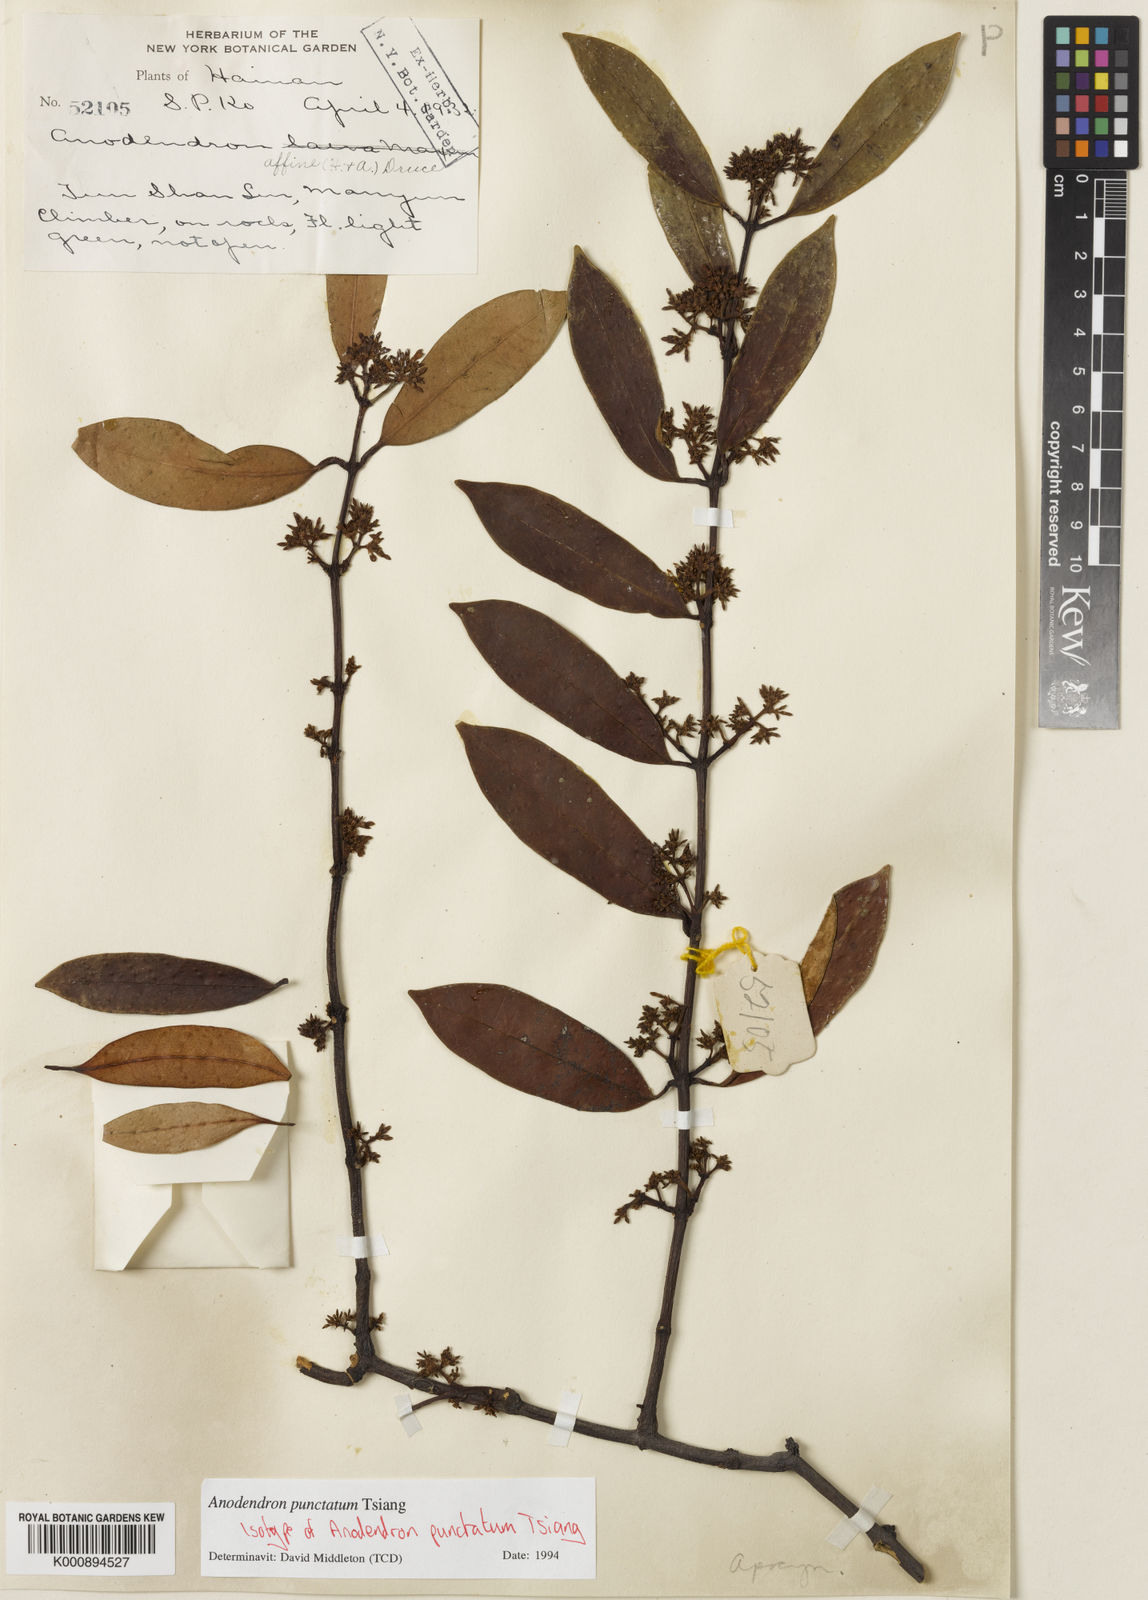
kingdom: Plantae
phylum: Tracheophyta
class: Magnoliopsida
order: Gentianales
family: Apocynaceae
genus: Anodendron
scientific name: Anodendron punctatum
